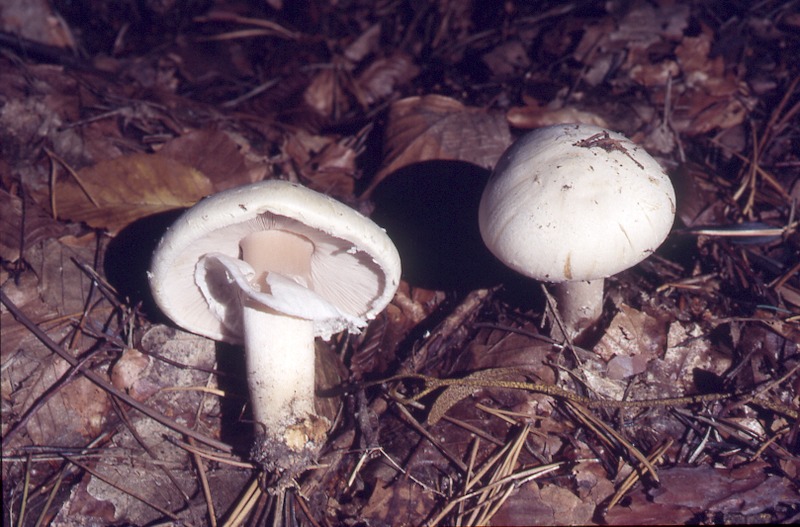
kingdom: Fungi
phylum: Basidiomycota
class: Agaricomycetes
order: Agaricales
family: Agaricaceae
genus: Agaricus
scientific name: Agaricus abruptibulbus
